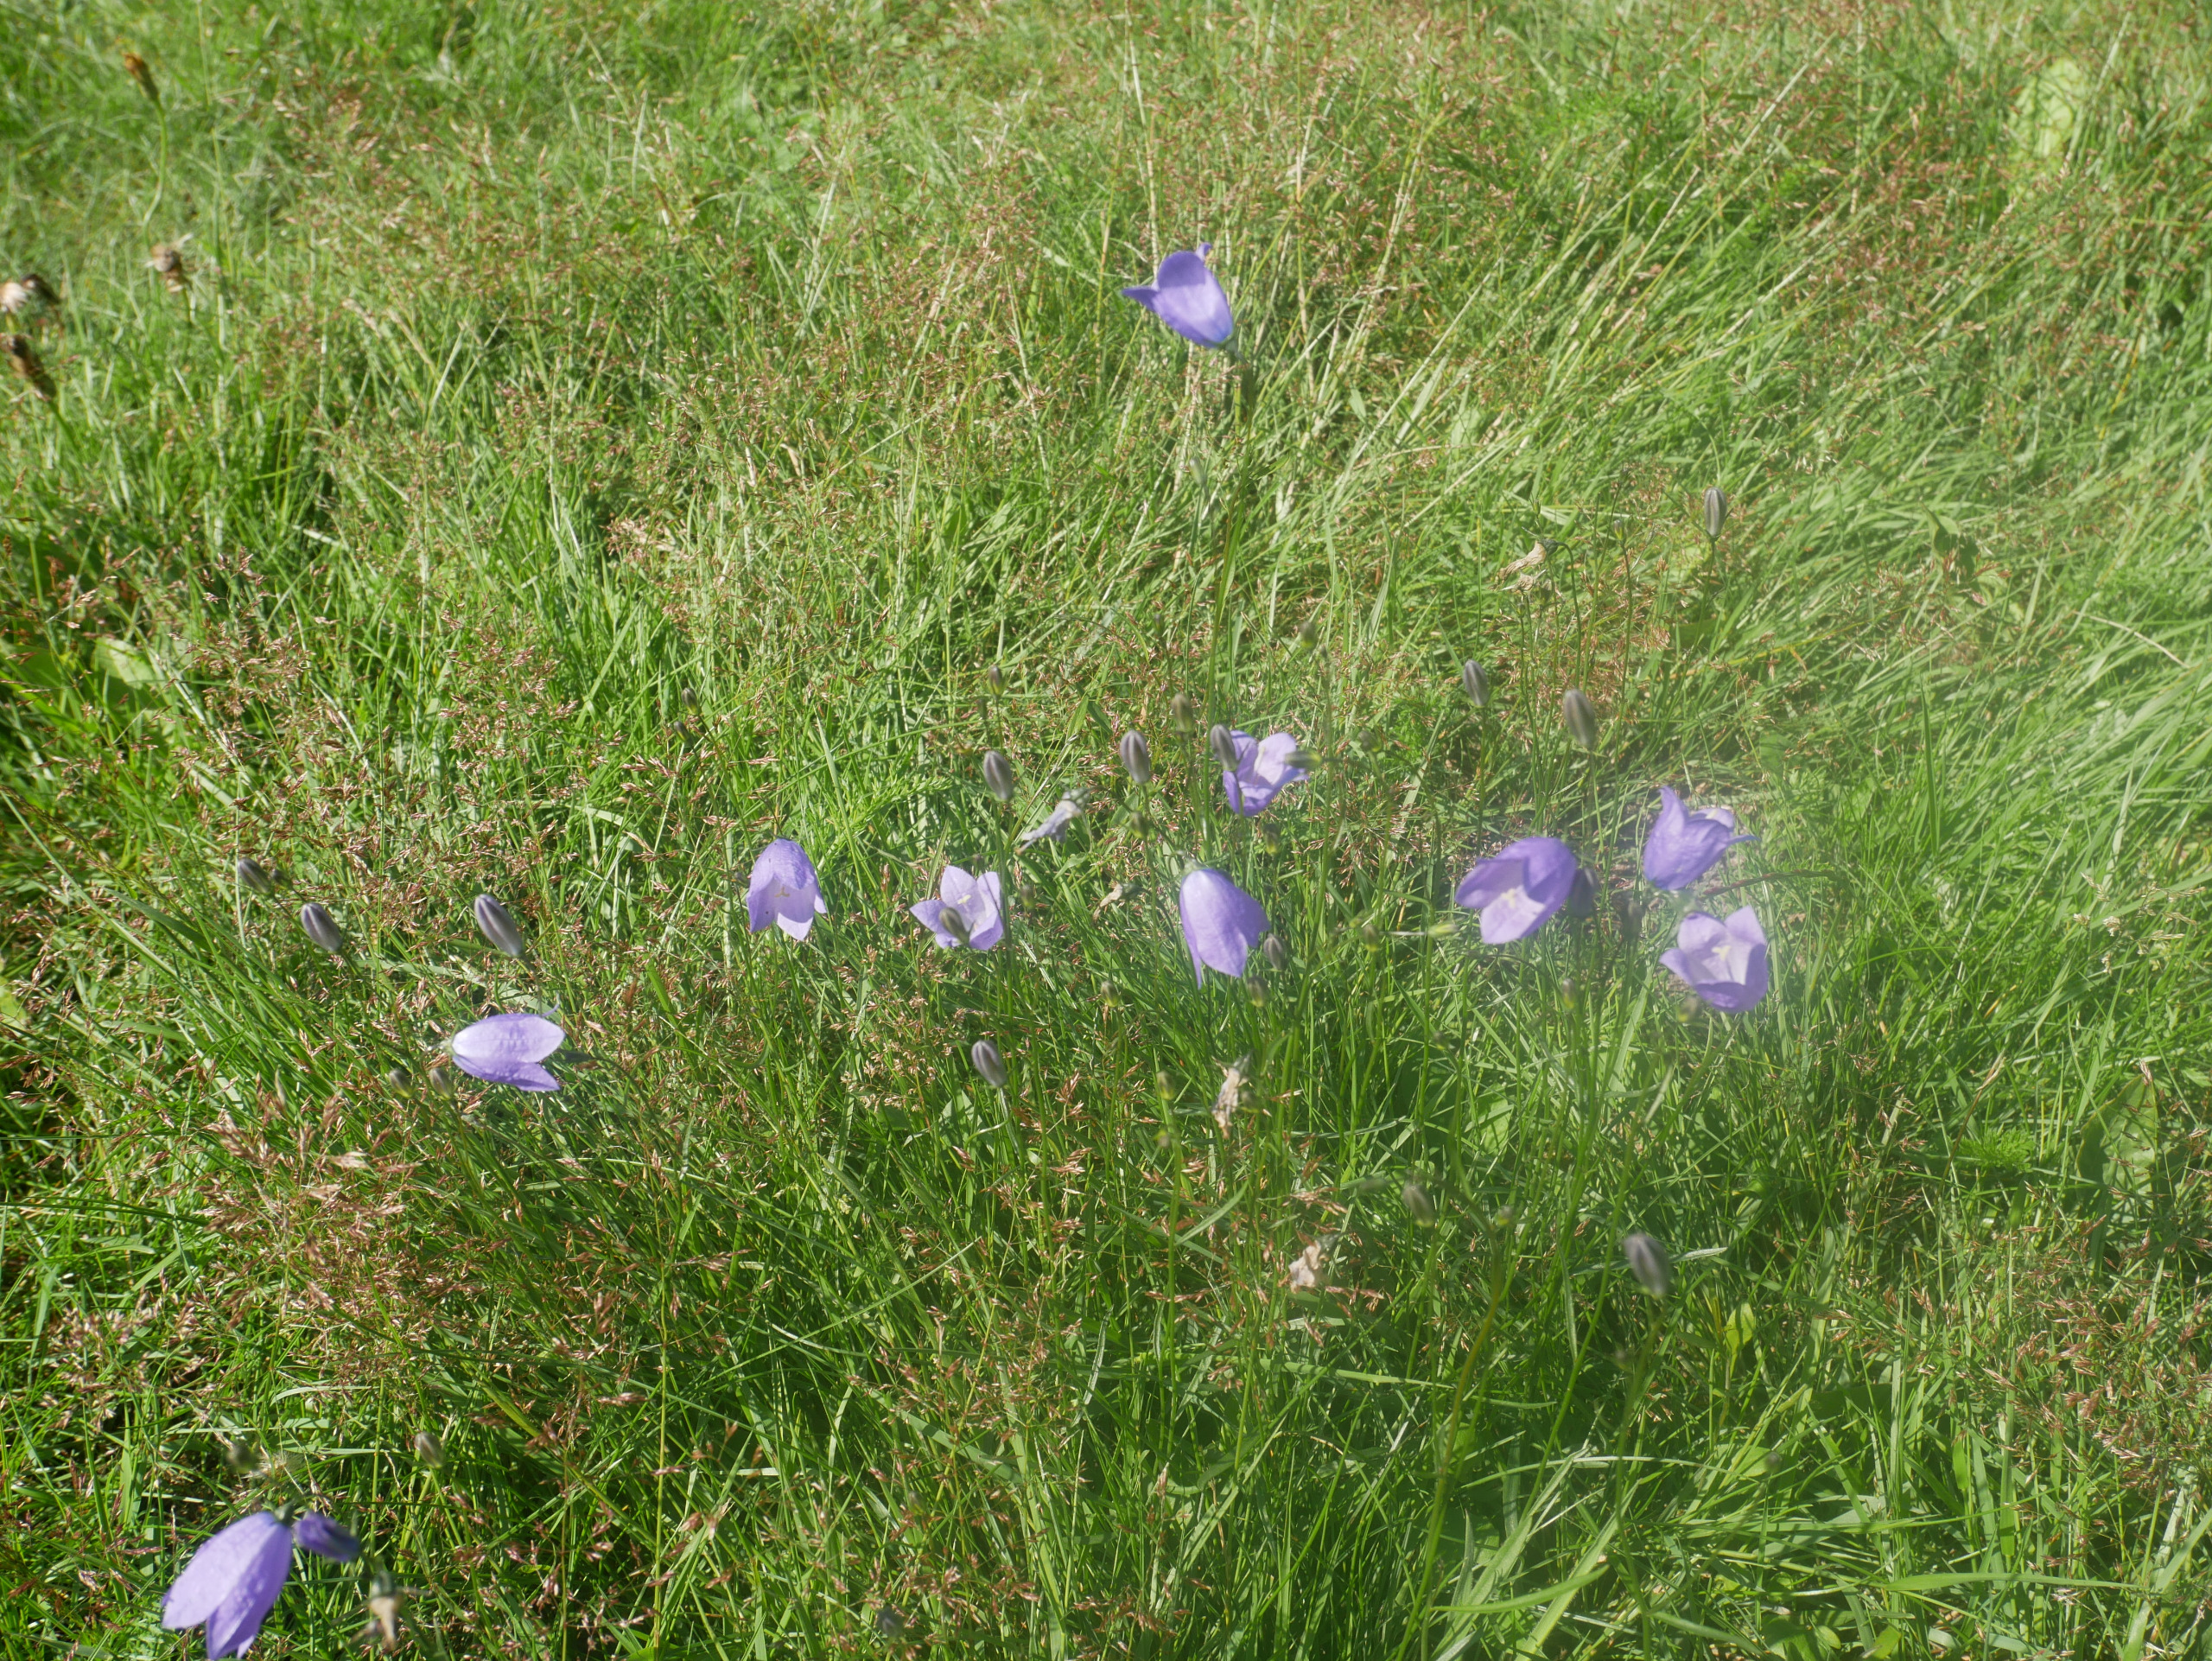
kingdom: Plantae
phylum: Tracheophyta
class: Magnoliopsida
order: Asterales
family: Campanulaceae
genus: Campanula
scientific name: Campanula rotundifolia
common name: Liden klokke
